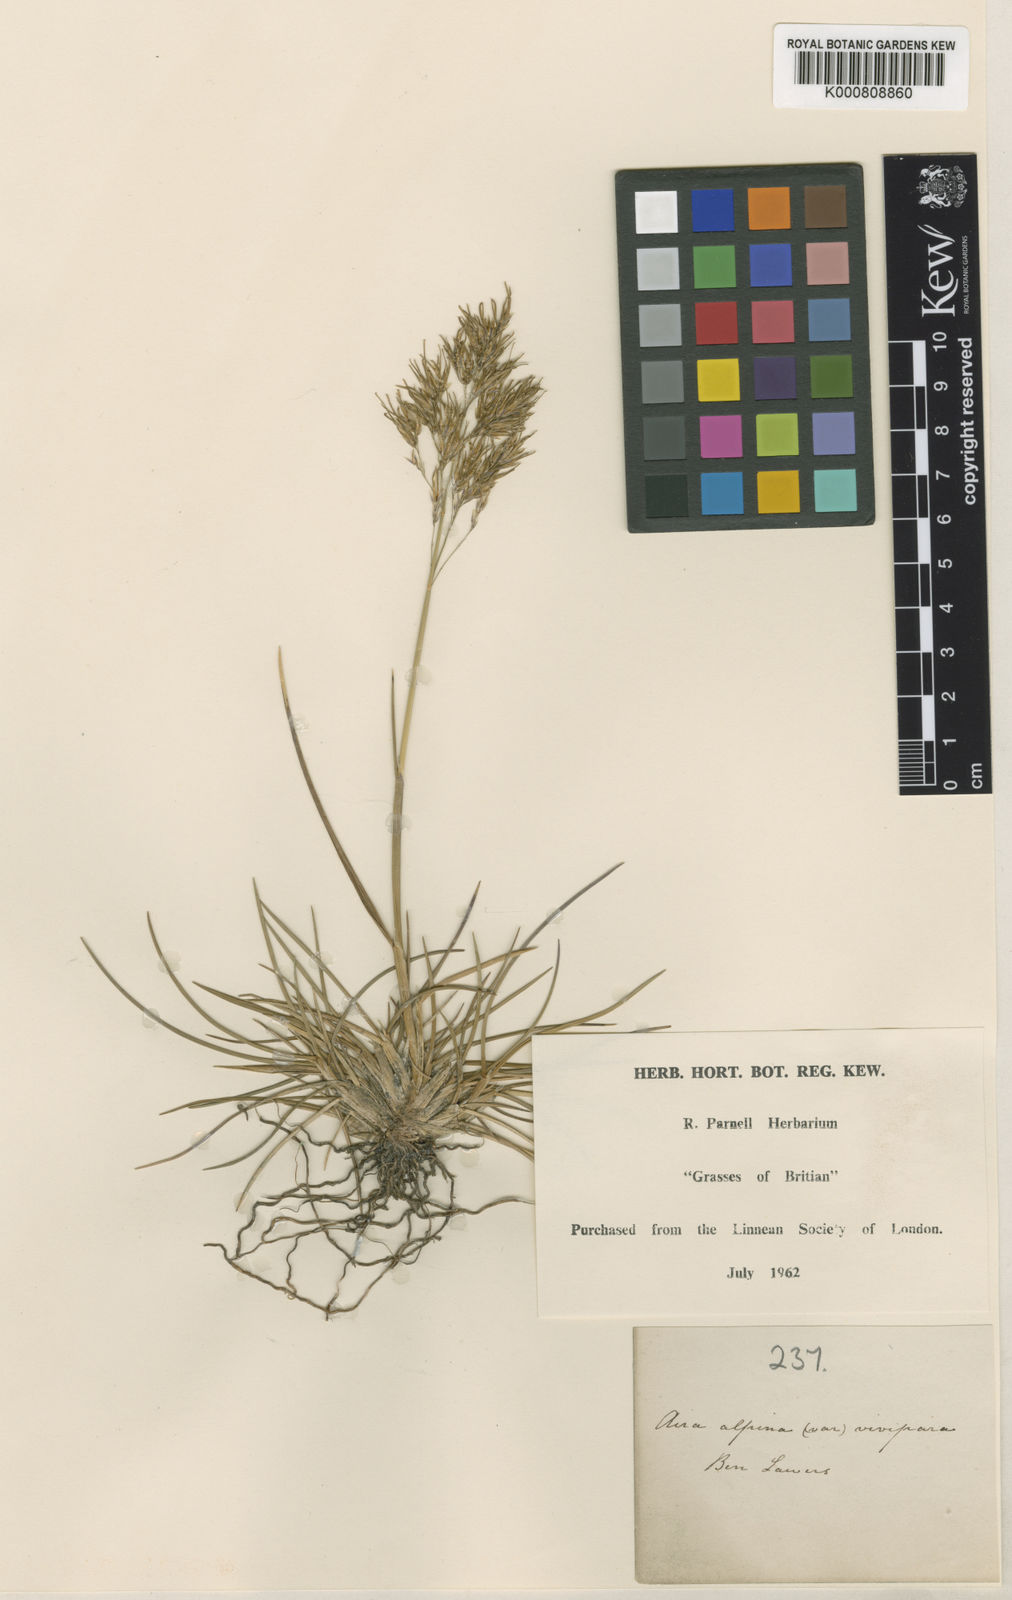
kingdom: Plantae
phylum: Tracheophyta
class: Liliopsida
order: Poales
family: Poaceae
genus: Deschampsia
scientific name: Deschampsia cespitosa
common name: Tufted hair-grass
